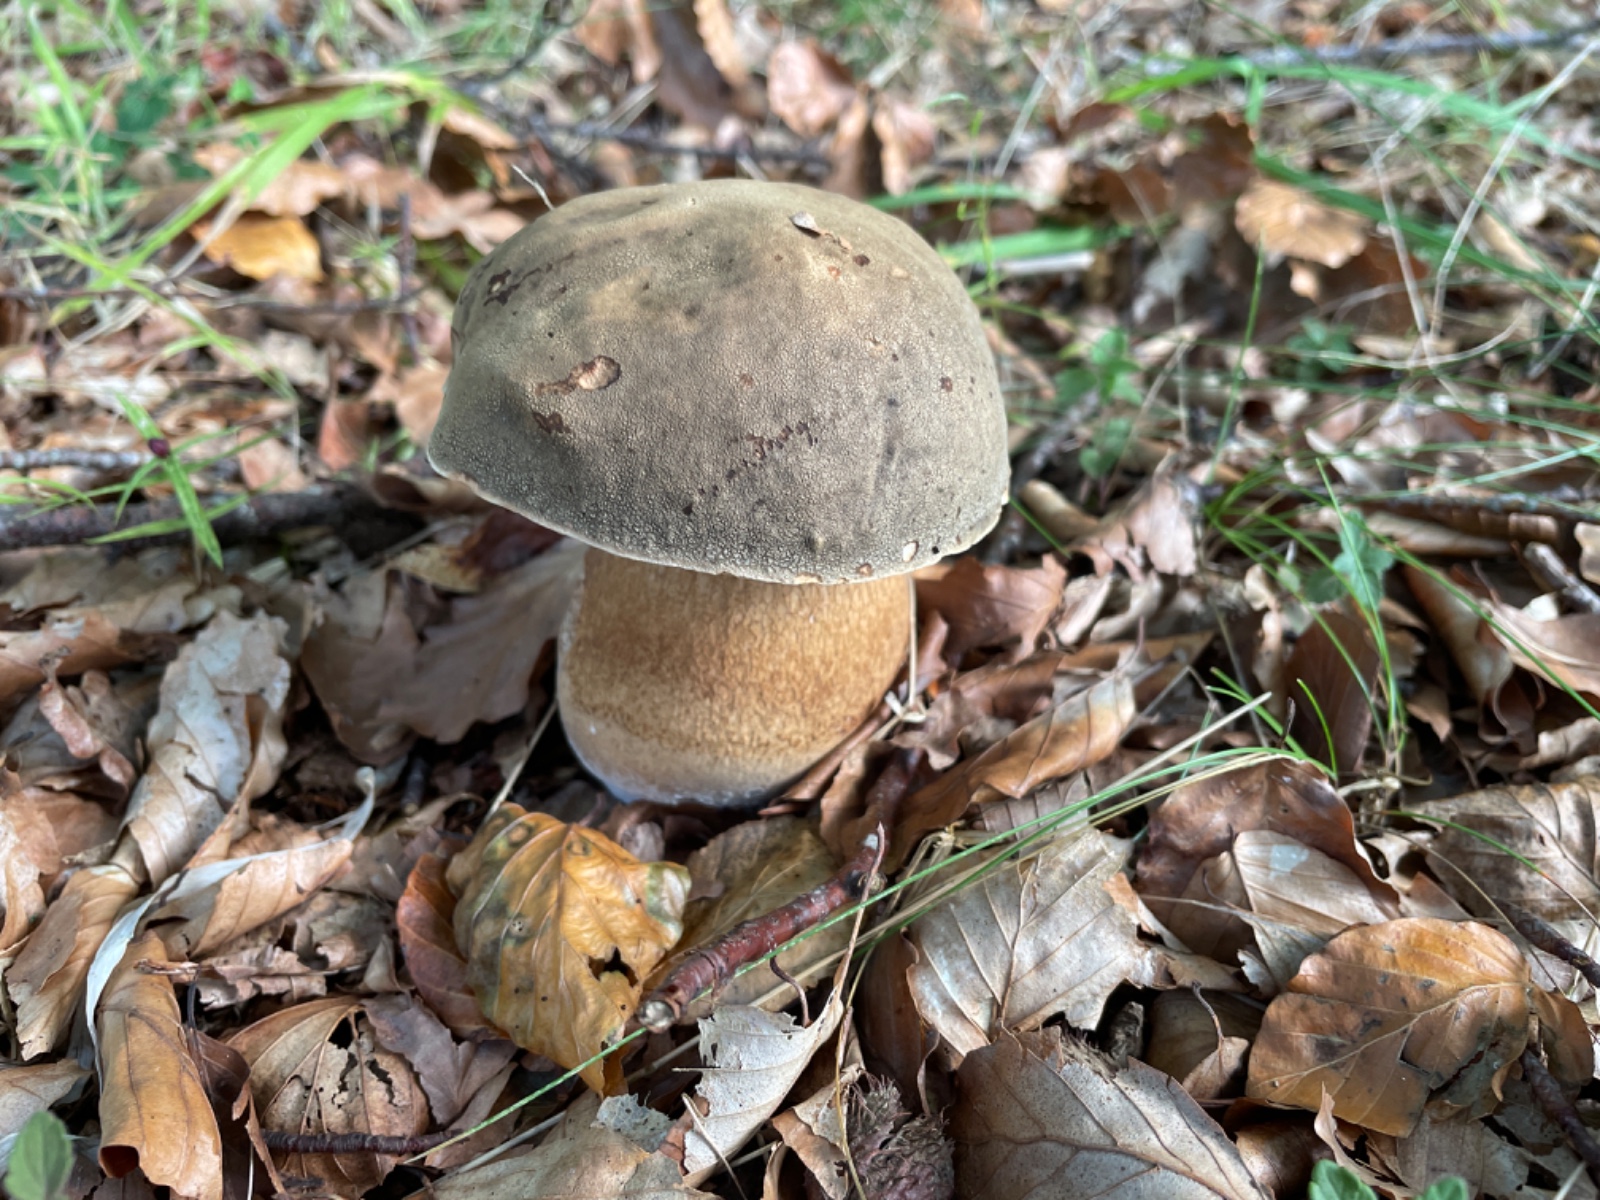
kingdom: Fungi
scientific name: Fungi
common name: bronze-rørhat
